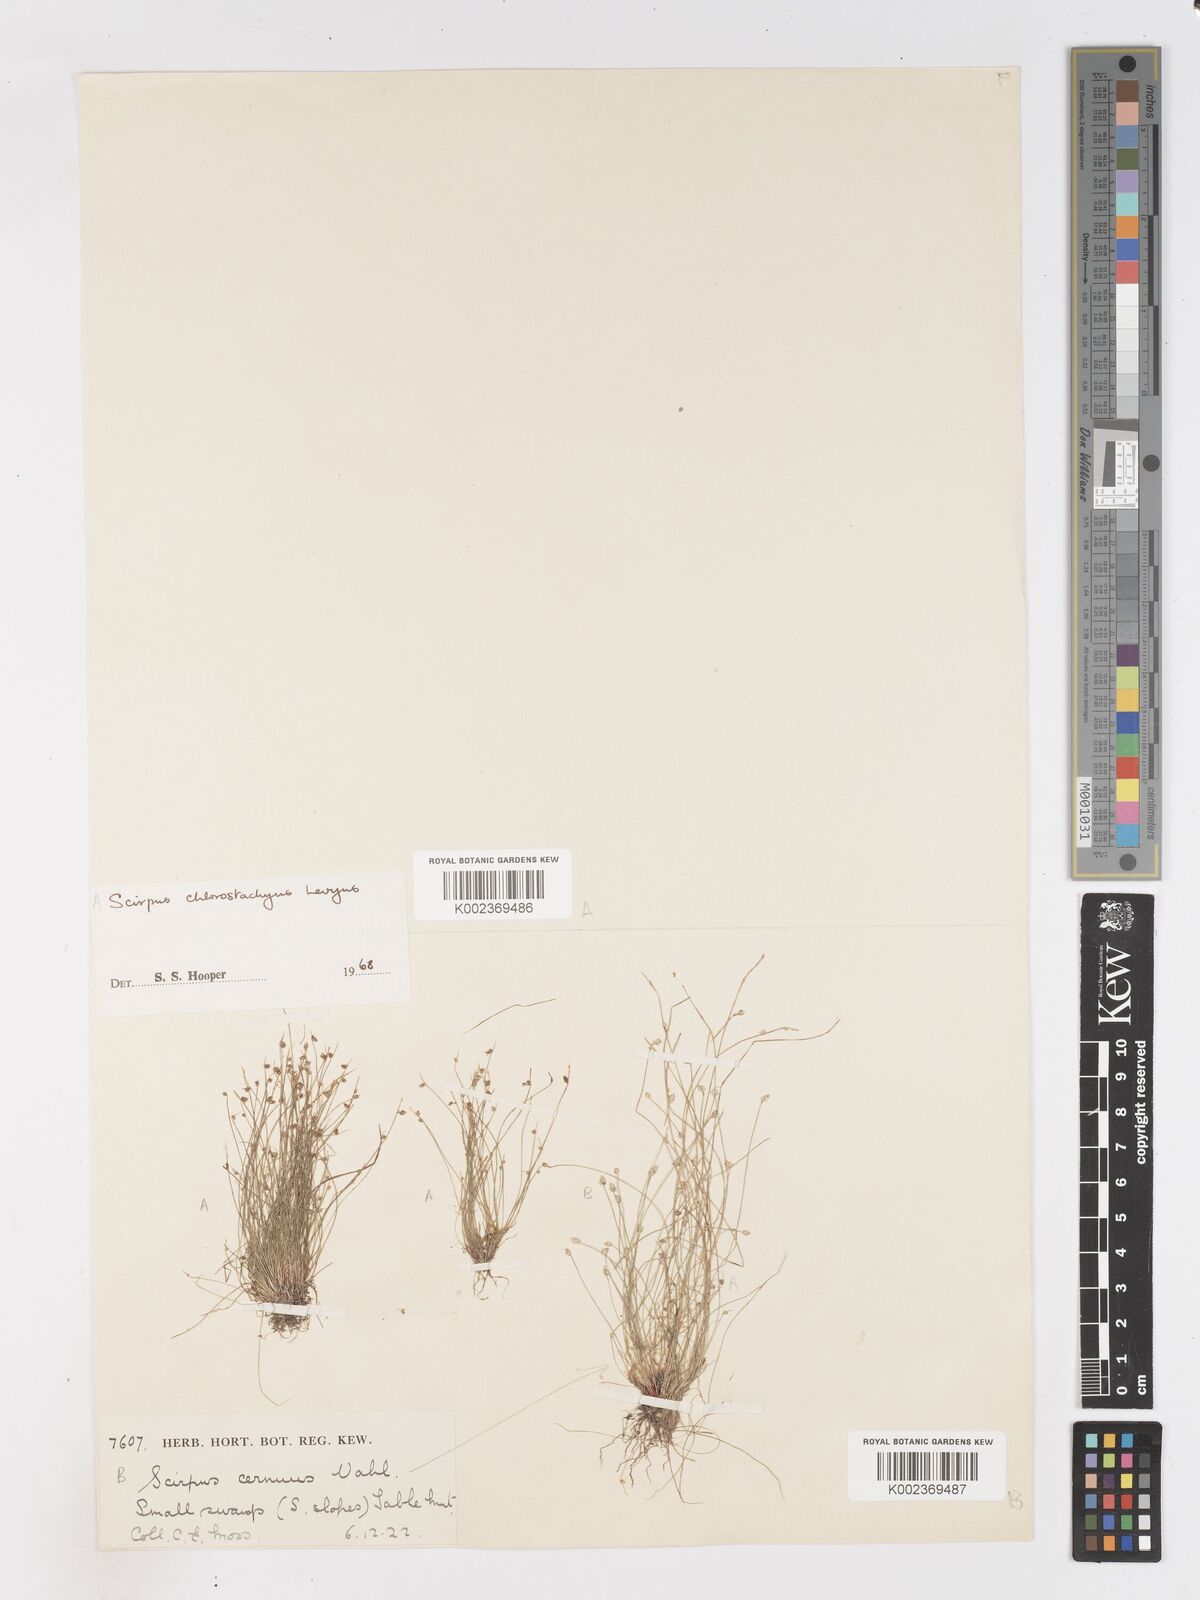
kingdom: Plantae
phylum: Tracheophyta
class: Liliopsida
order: Poales
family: Cyperaceae
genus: Isolepis
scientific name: Isolepis sepulcralis
